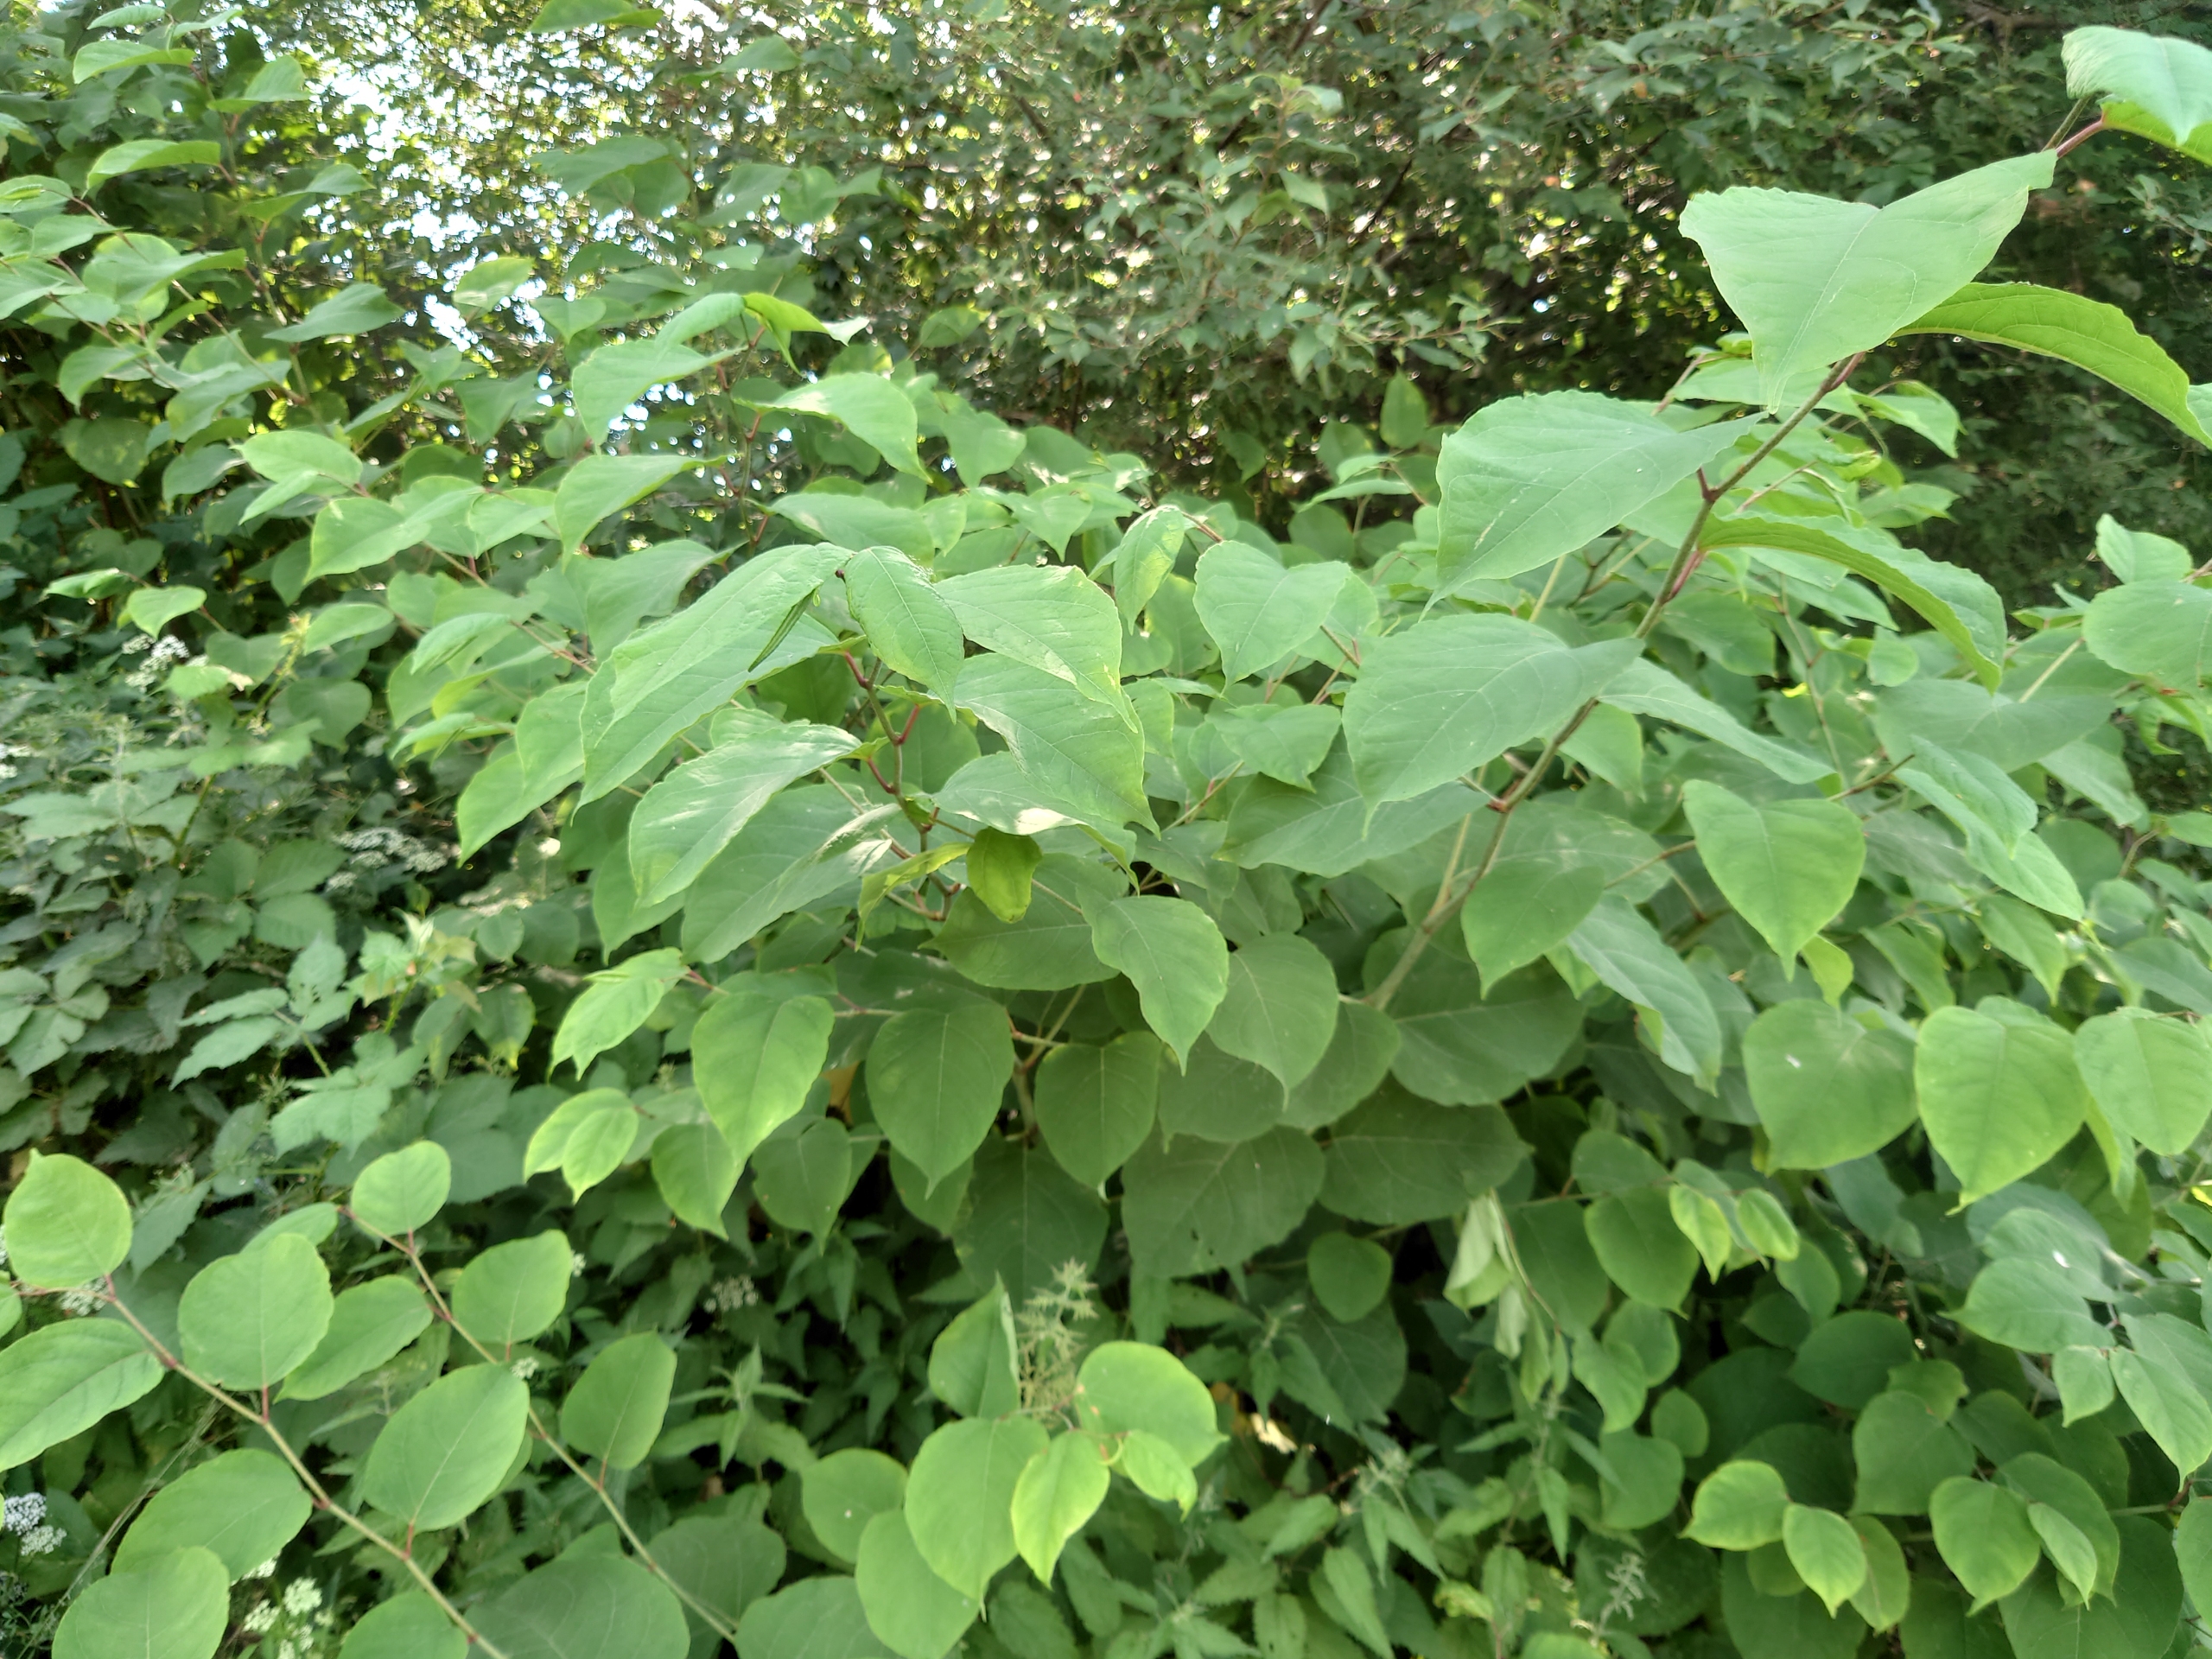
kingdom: Plantae
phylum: Tracheophyta
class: Magnoliopsida
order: Caryophyllales
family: Polygonaceae
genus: Reynoutria
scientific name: Reynoutria japonica
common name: Japan-pileurt
